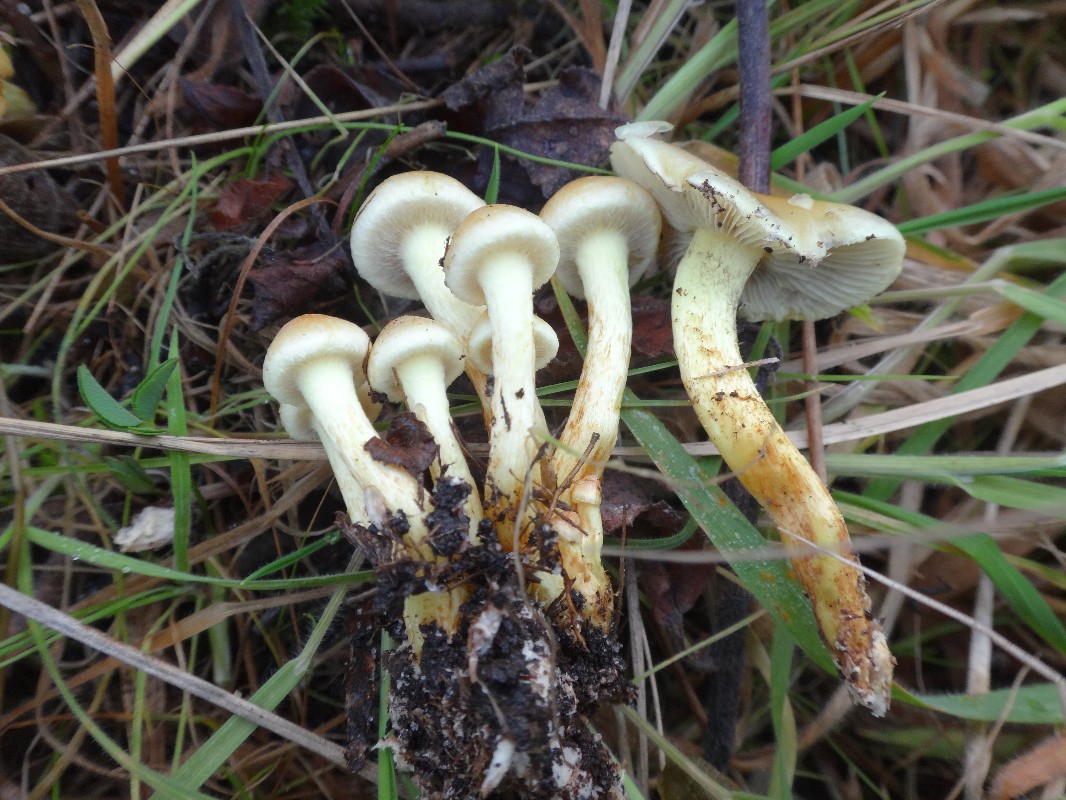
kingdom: Fungi
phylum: Basidiomycota
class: Agaricomycetes
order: Agaricales
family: Strophariaceae
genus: Hypholoma
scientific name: Hypholoma fasciculare
